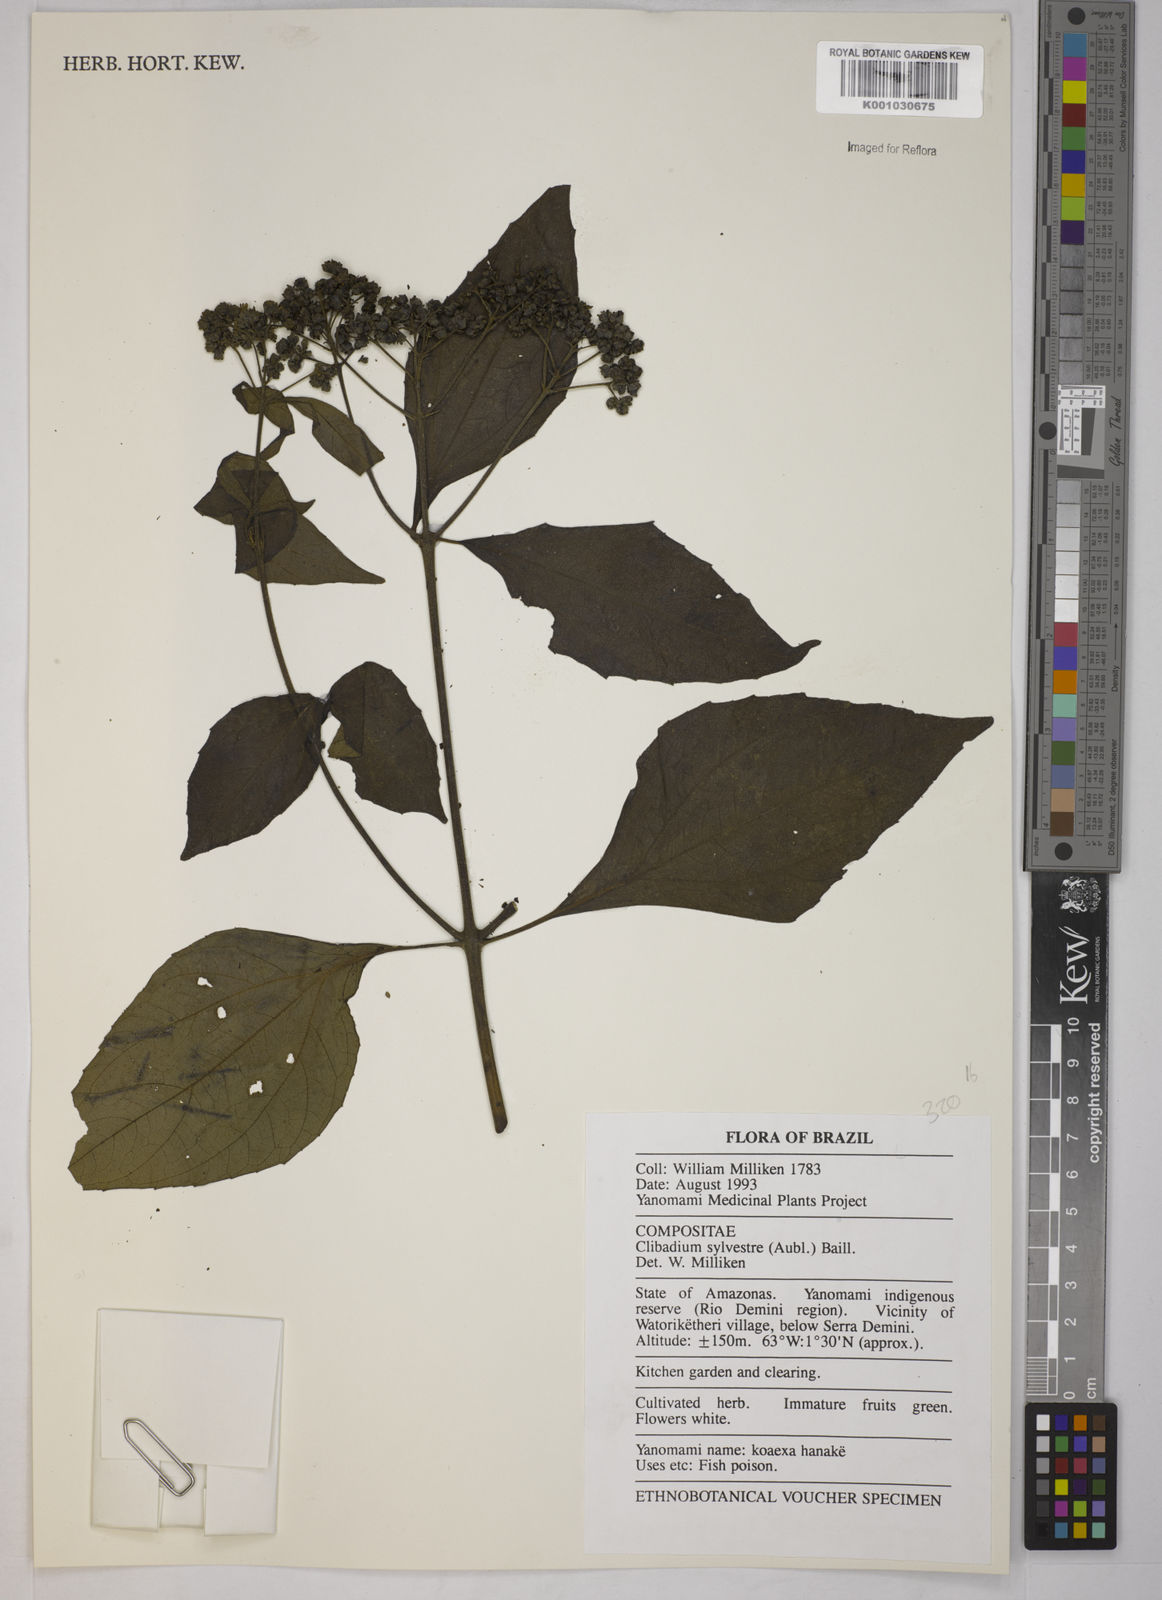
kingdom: Plantae
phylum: Tracheophyta
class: Magnoliopsida
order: Asterales
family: Asteraceae
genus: Clibadium
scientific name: Clibadium sylvestre
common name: Barbasco
